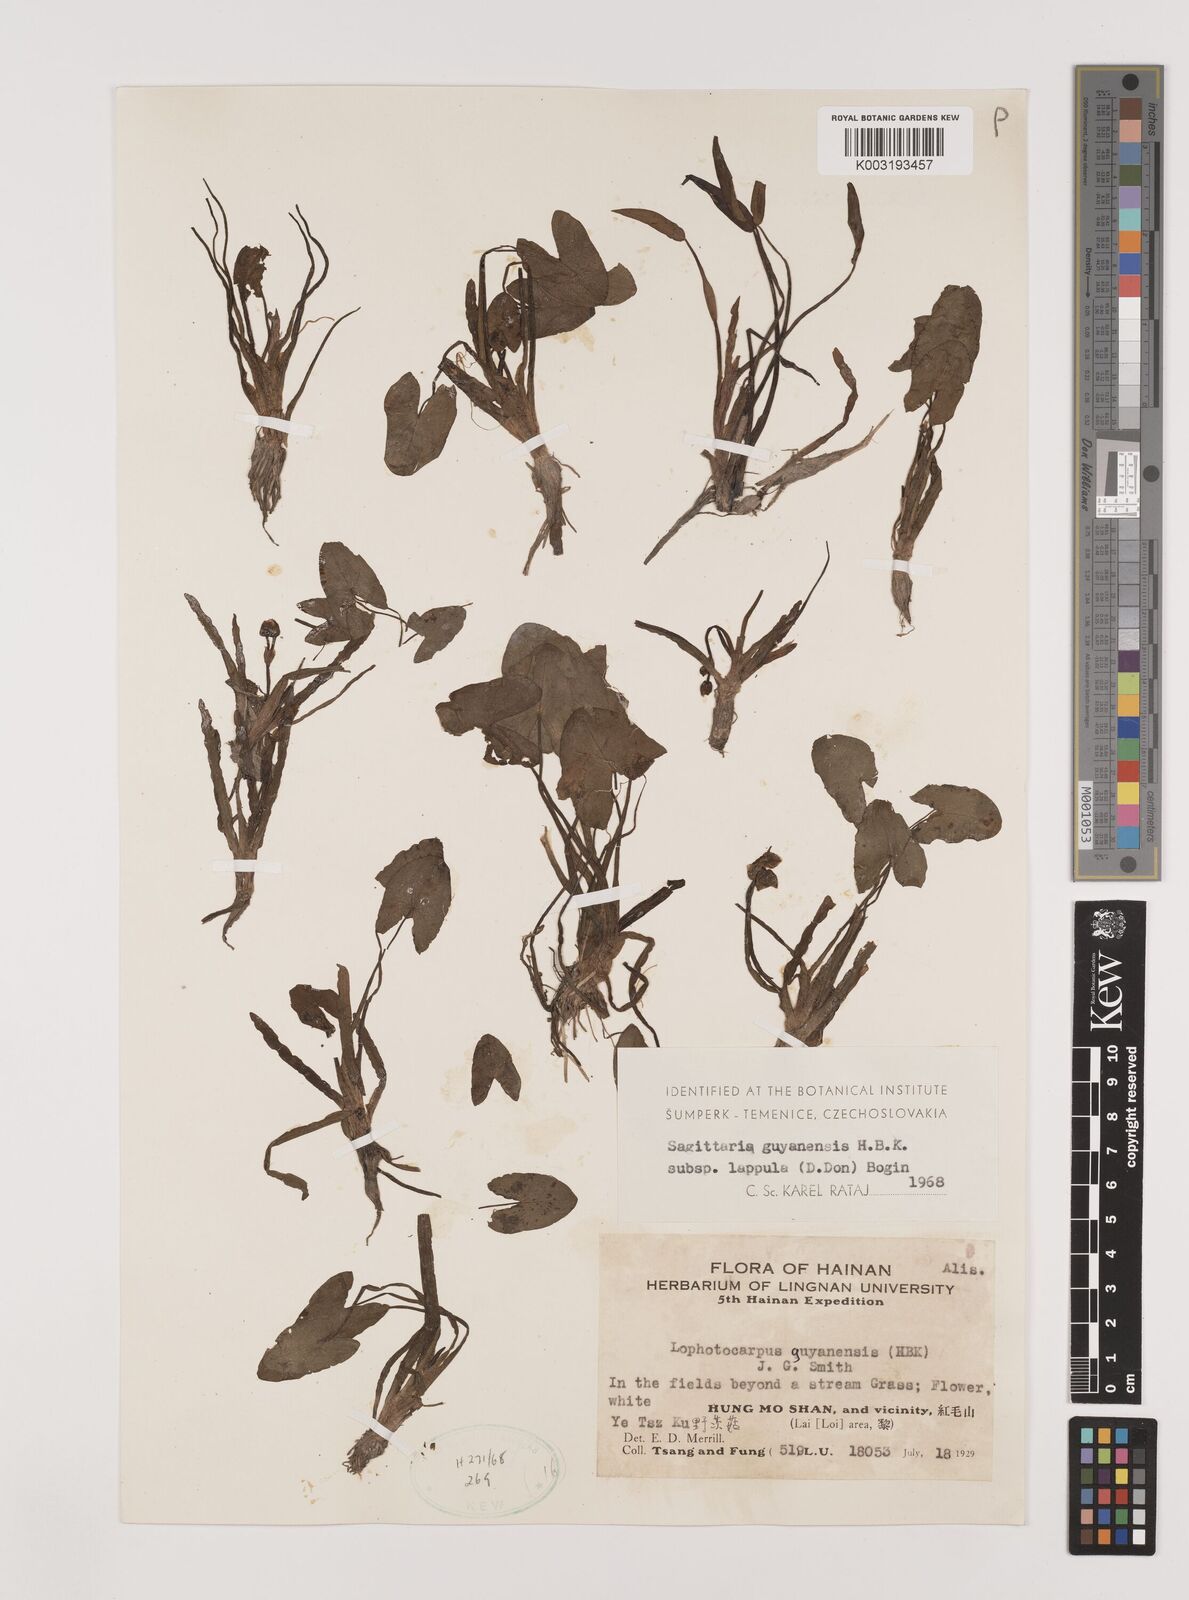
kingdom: Plantae
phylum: Tracheophyta
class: Liliopsida
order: Alismatales
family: Alismataceae
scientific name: Alismataceae
